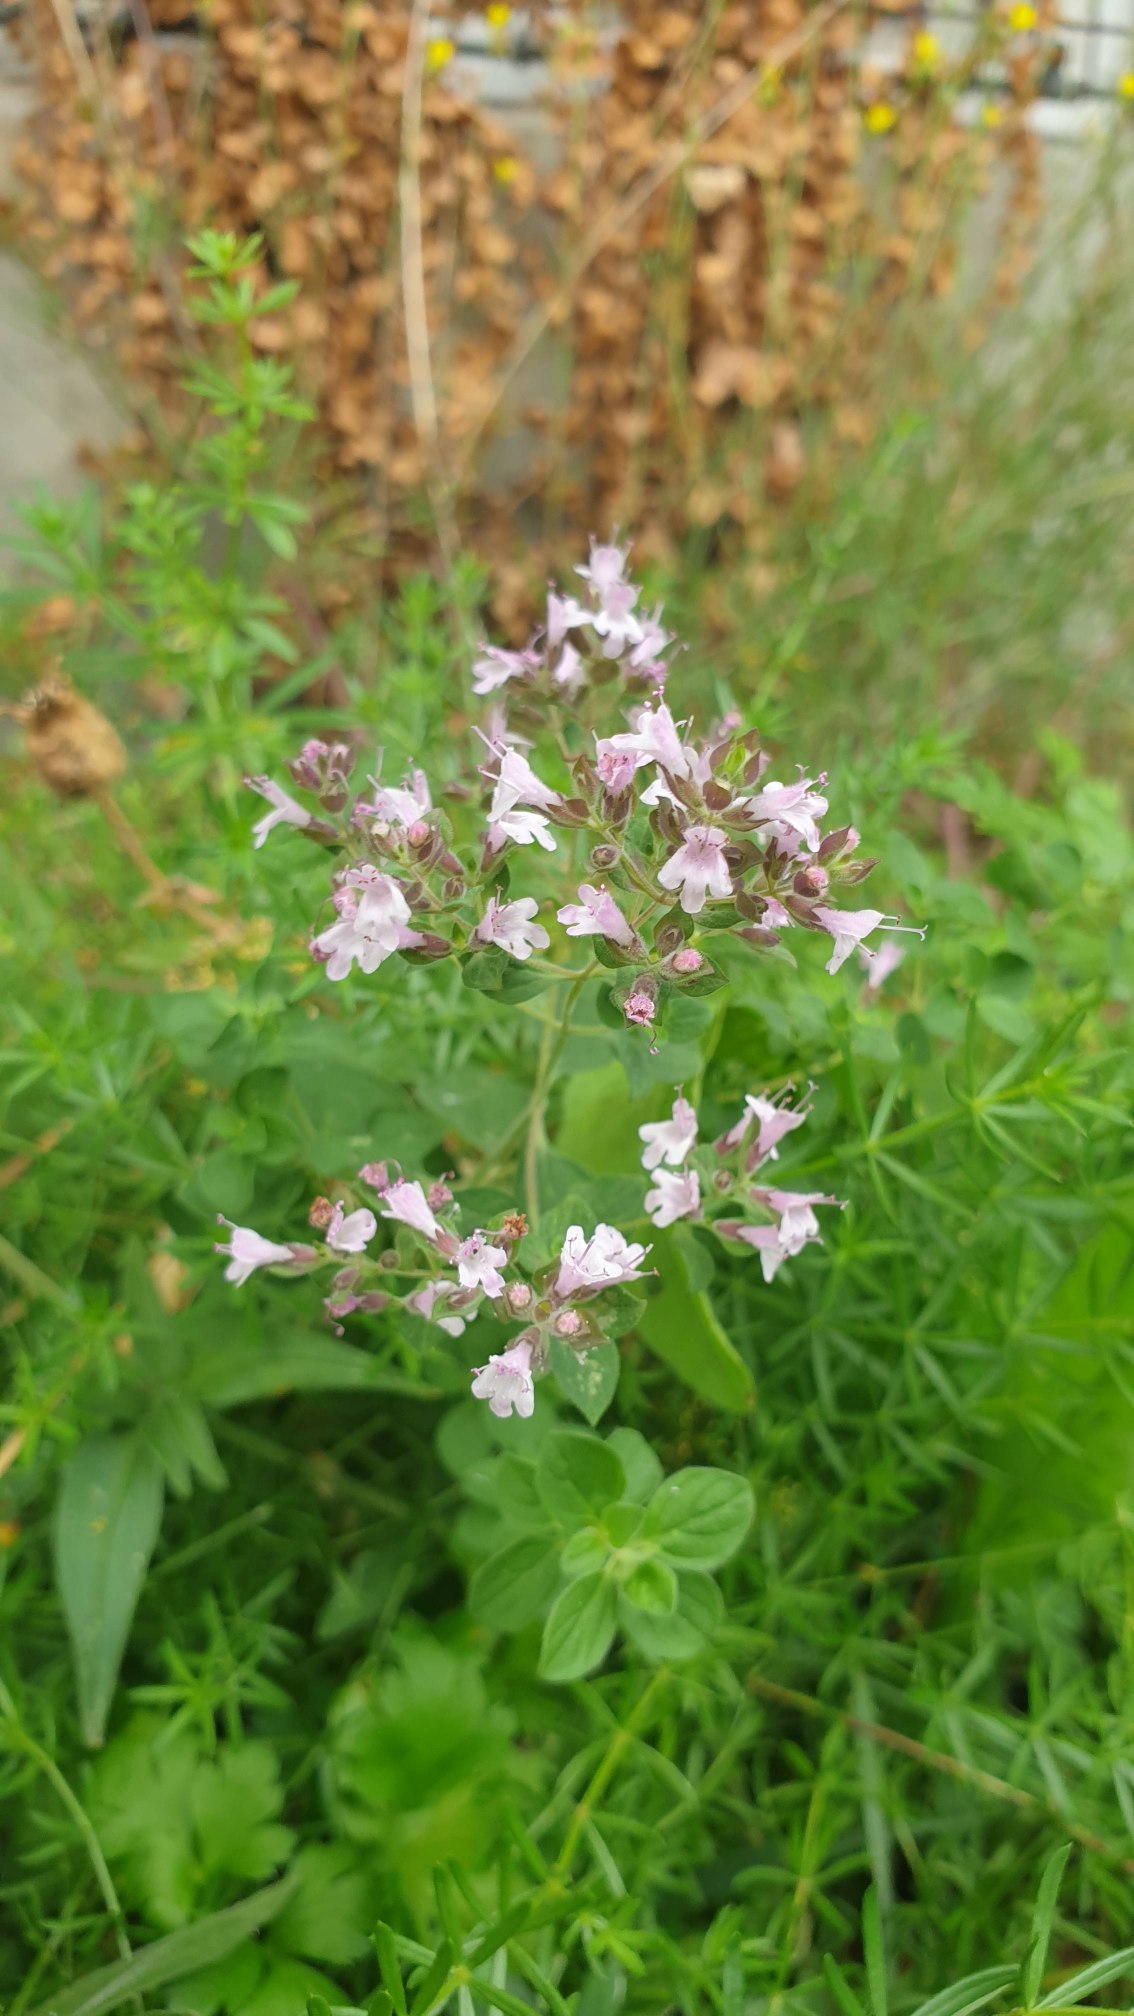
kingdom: Plantae
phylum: Tracheophyta
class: Magnoliopsida
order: Lamiales
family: Lamiaceae
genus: Origanum
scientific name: Origanum vulgare
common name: Merian
